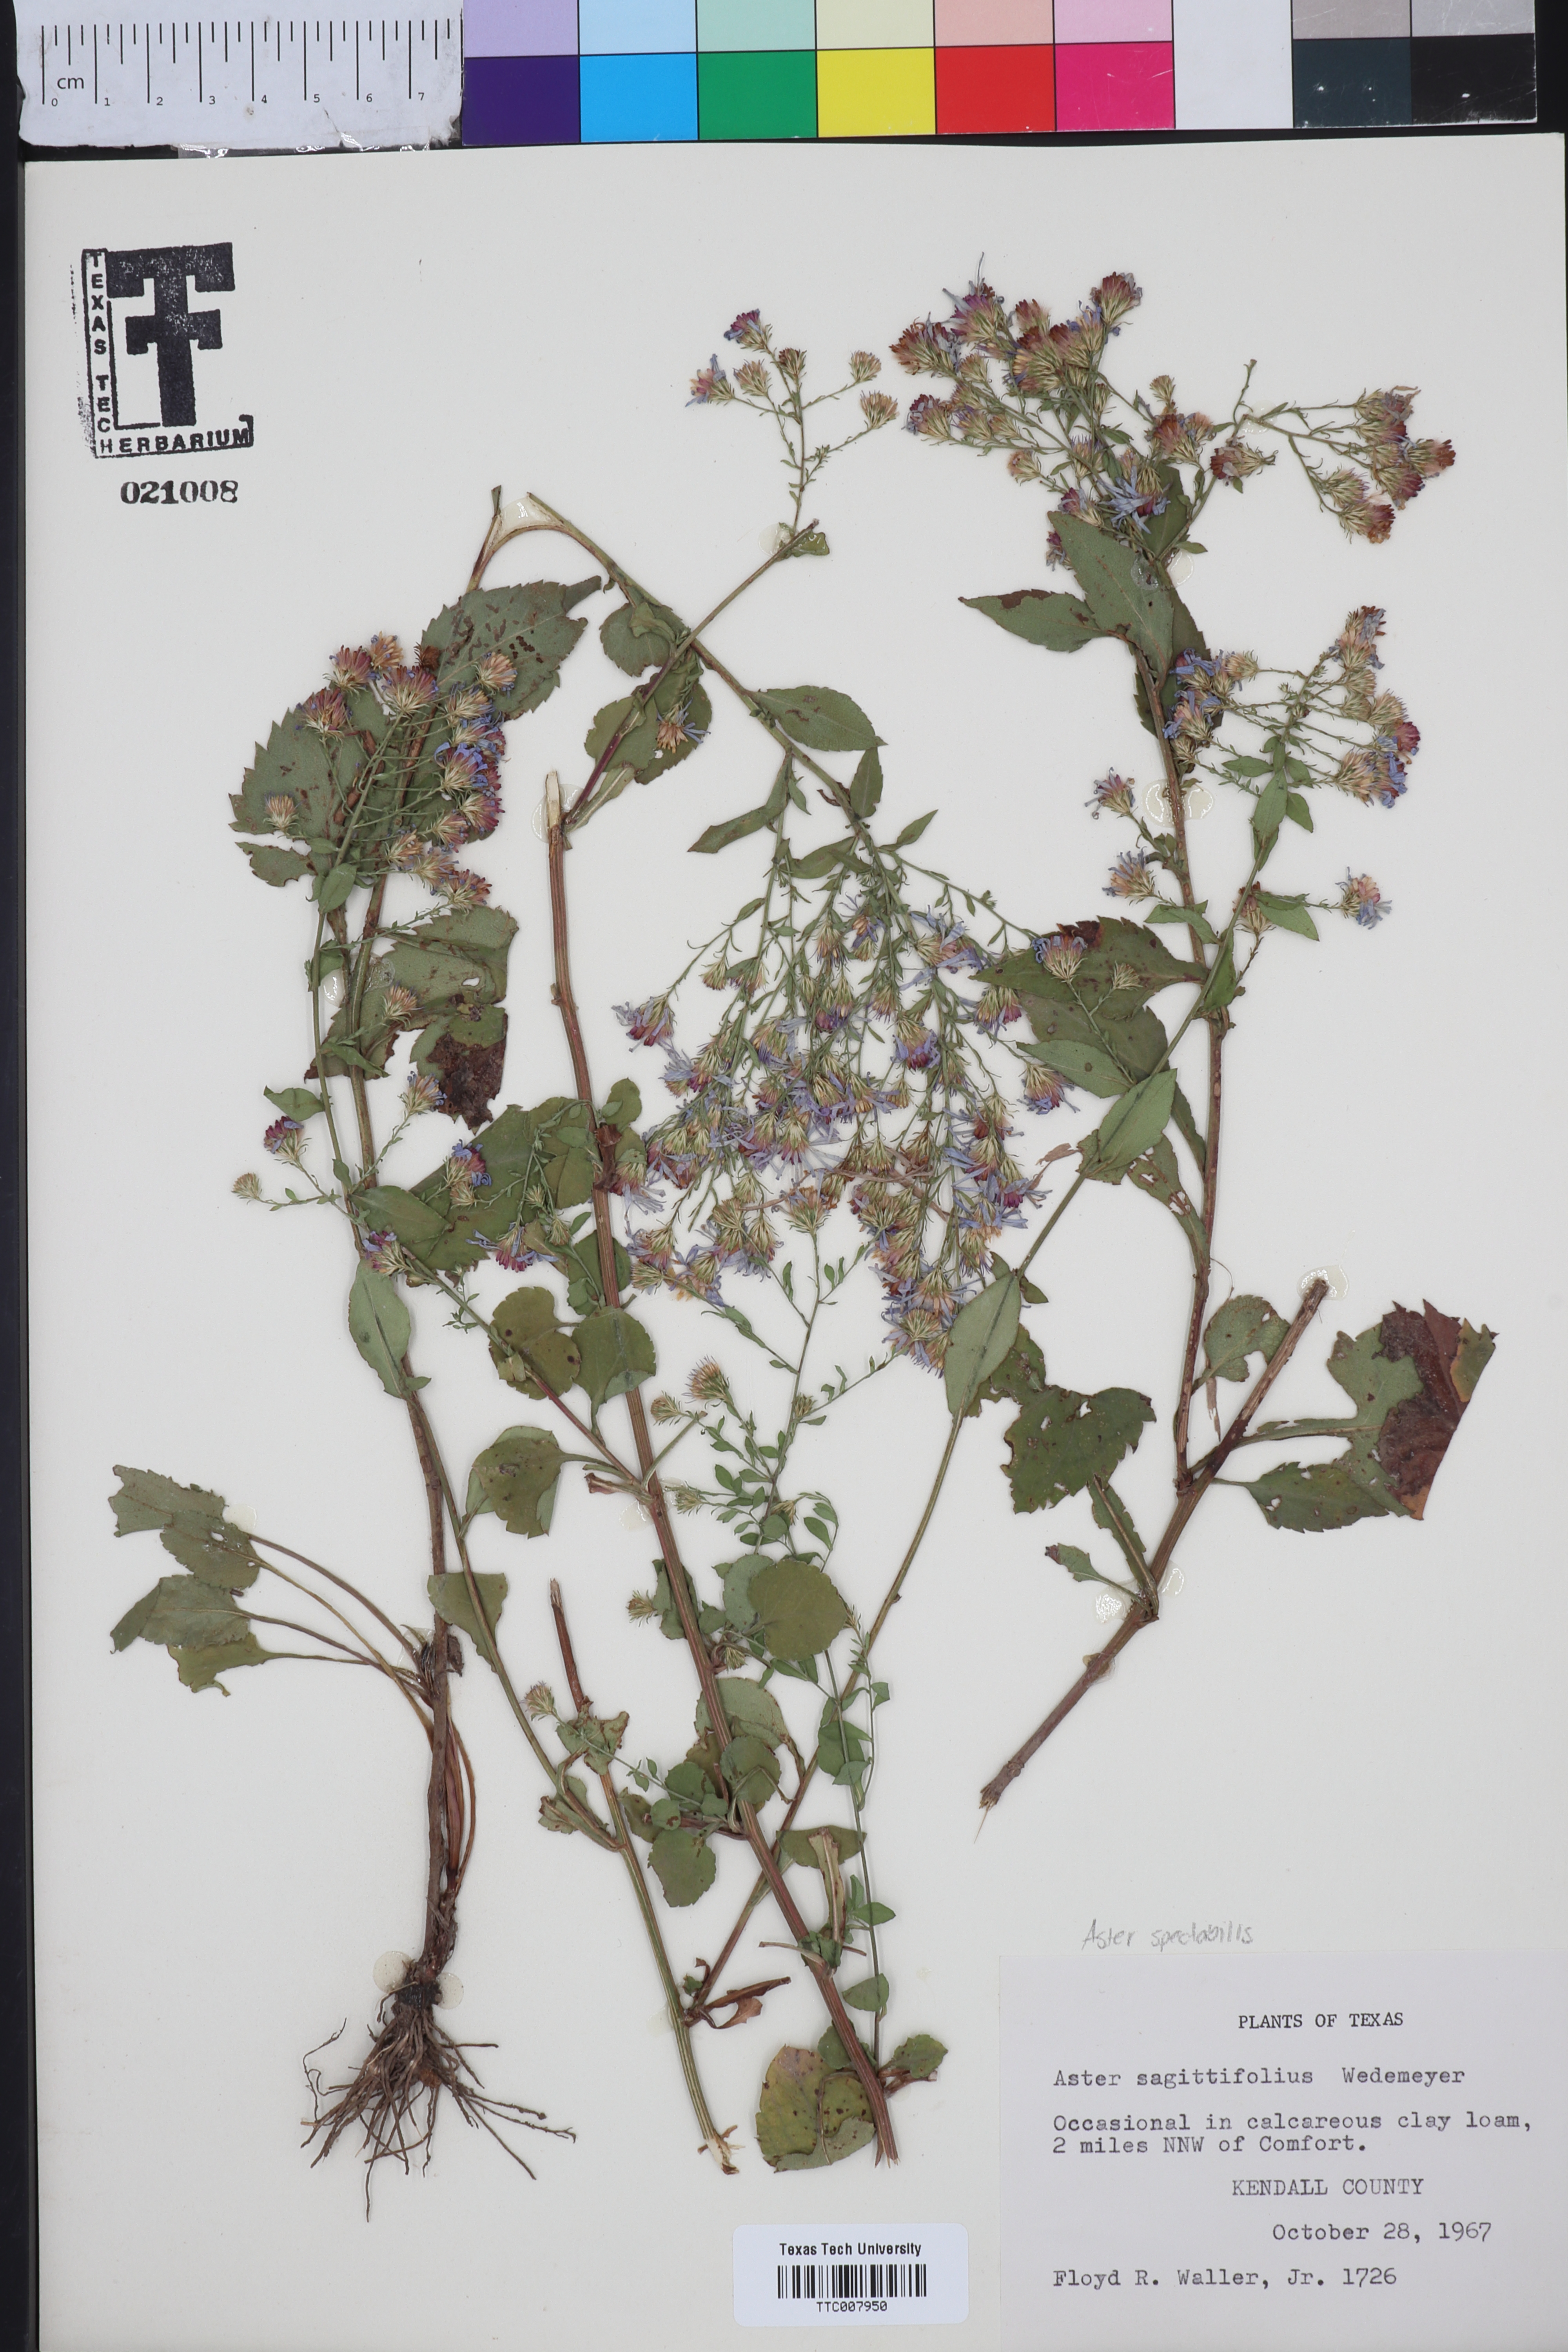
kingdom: Plantae
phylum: Tracheophyta
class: Magnoliopsida
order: Asterales
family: Asteraceae
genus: Symphyotrichum
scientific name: Symphyotrichum undulatum
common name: Clasping heart-leaf aster
